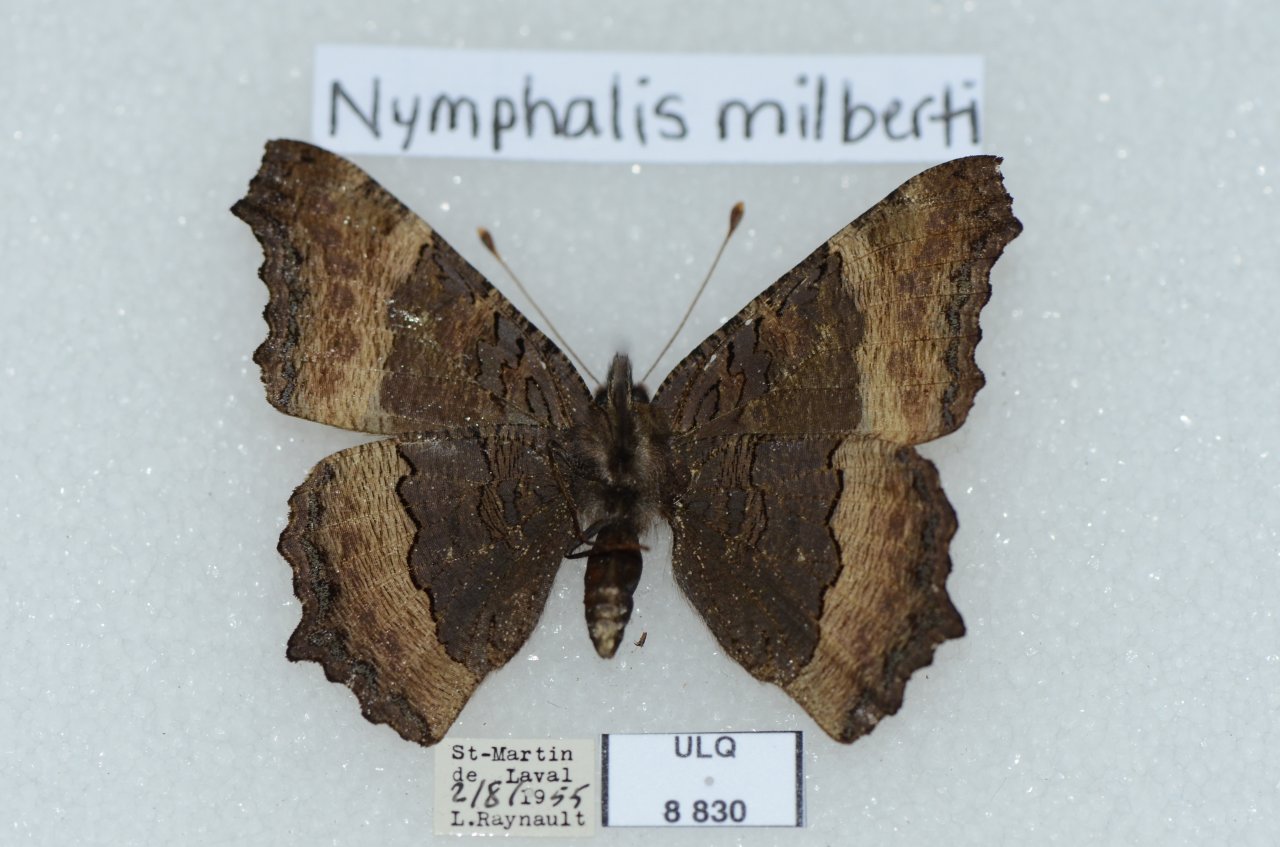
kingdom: Animalia
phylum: Arthropoda
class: Insecta
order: Lepidoptera
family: Nymphalidae
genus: Aglais
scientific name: Aglais milberti
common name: Milbert's Tortoiseshell
